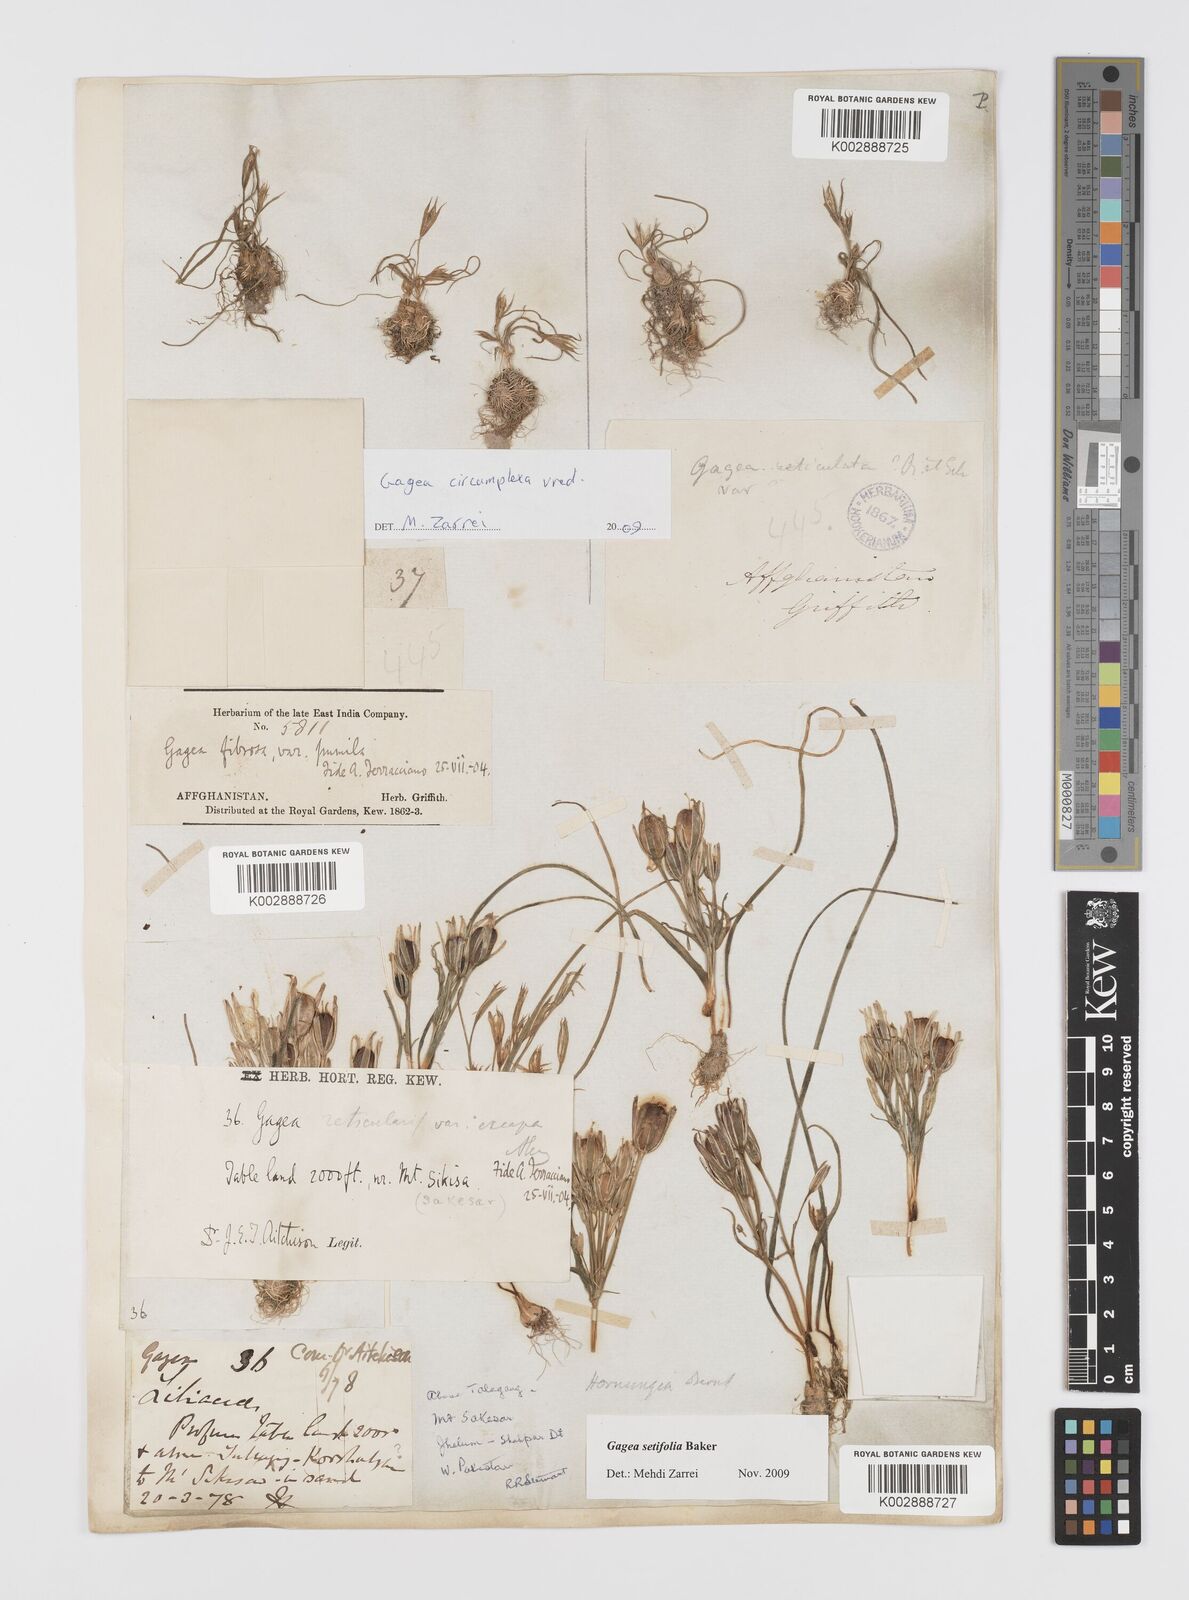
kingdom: Plantae
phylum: Tracheophyta
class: Liliopsida
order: Liliales
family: Liliaceae
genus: Gagea
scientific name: Gagea circumplexa
